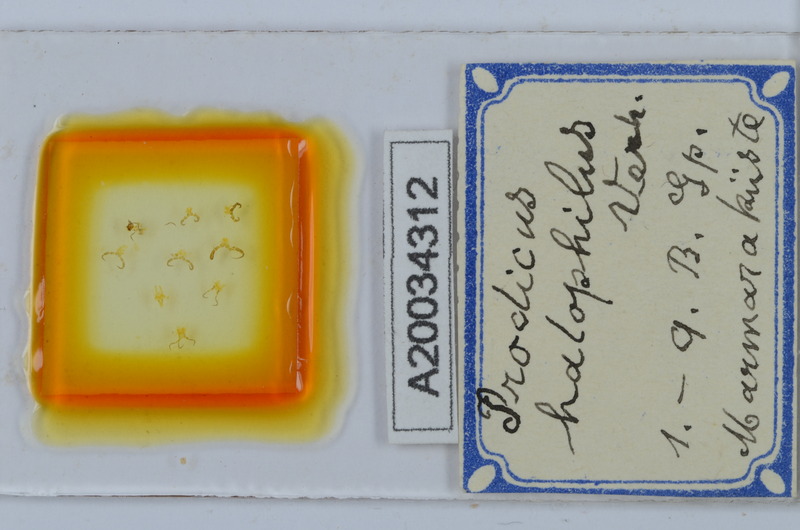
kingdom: Animalia
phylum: Arthropoda
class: Diplopoda
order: Chordeumatida
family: Anthroleucosomatidae
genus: Anamastigona
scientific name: Anamastigona halophila
